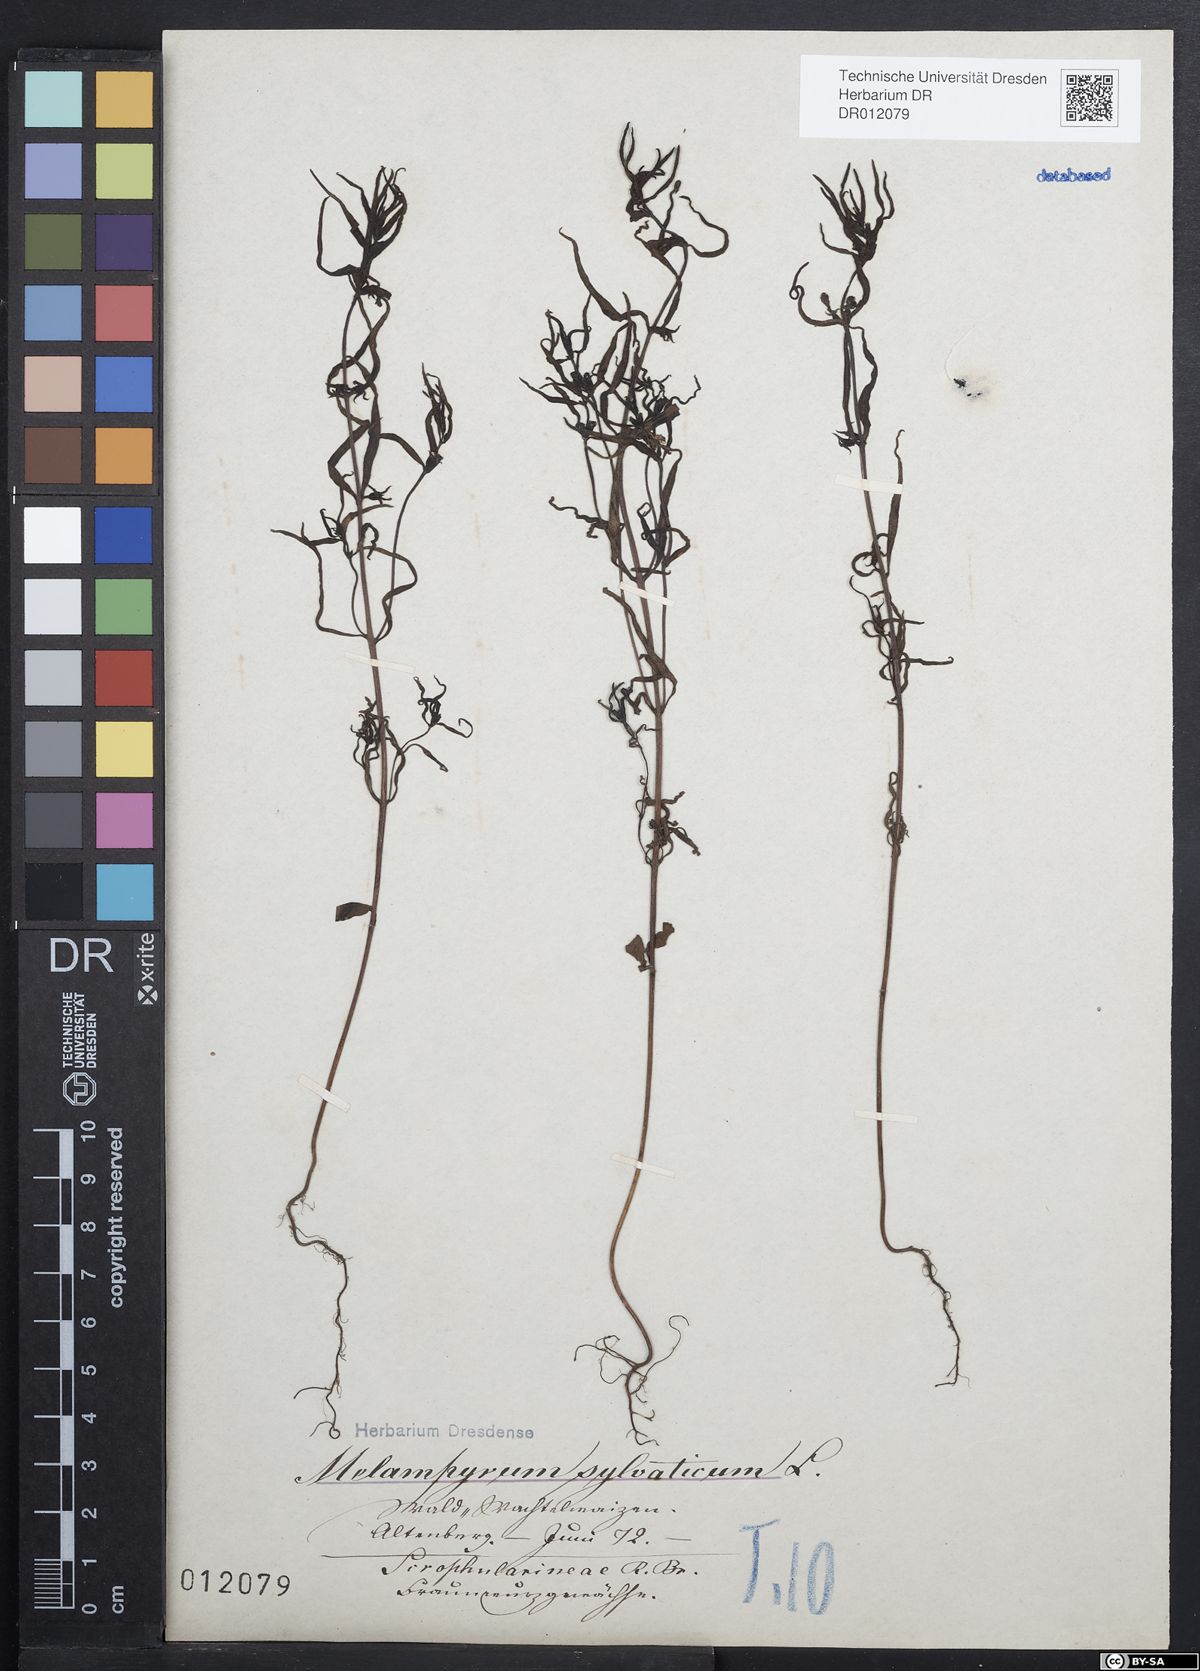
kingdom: Plantae
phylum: Tracheophyta
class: Magnoliopsida
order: Lamiales
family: Orobanchaceae
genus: Melampyrum
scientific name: Melampyrum sylvaticum
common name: Small cow-wheat
